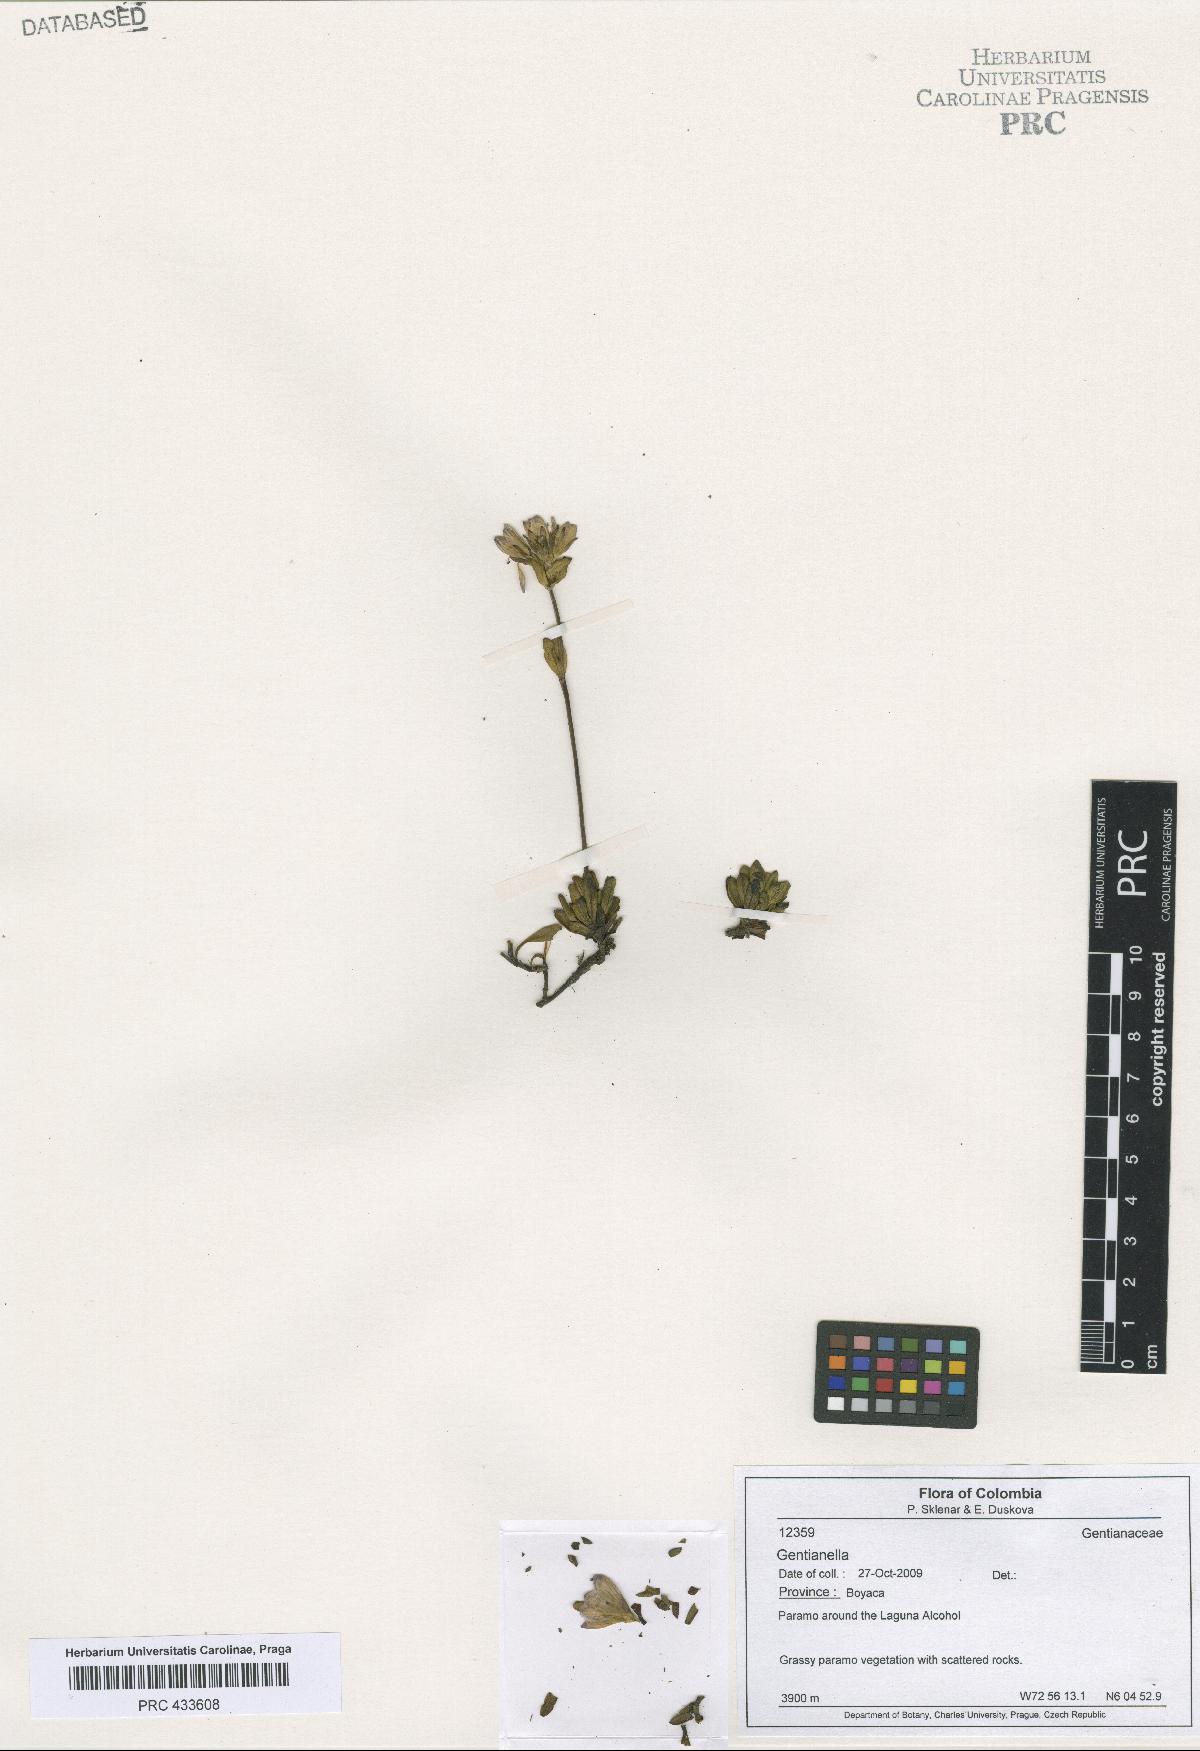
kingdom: Plantae
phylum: Tracheophyta
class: Magnoliopsida
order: Gentianales
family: Gentianaceae
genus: Gentianella
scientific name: Gentianella
